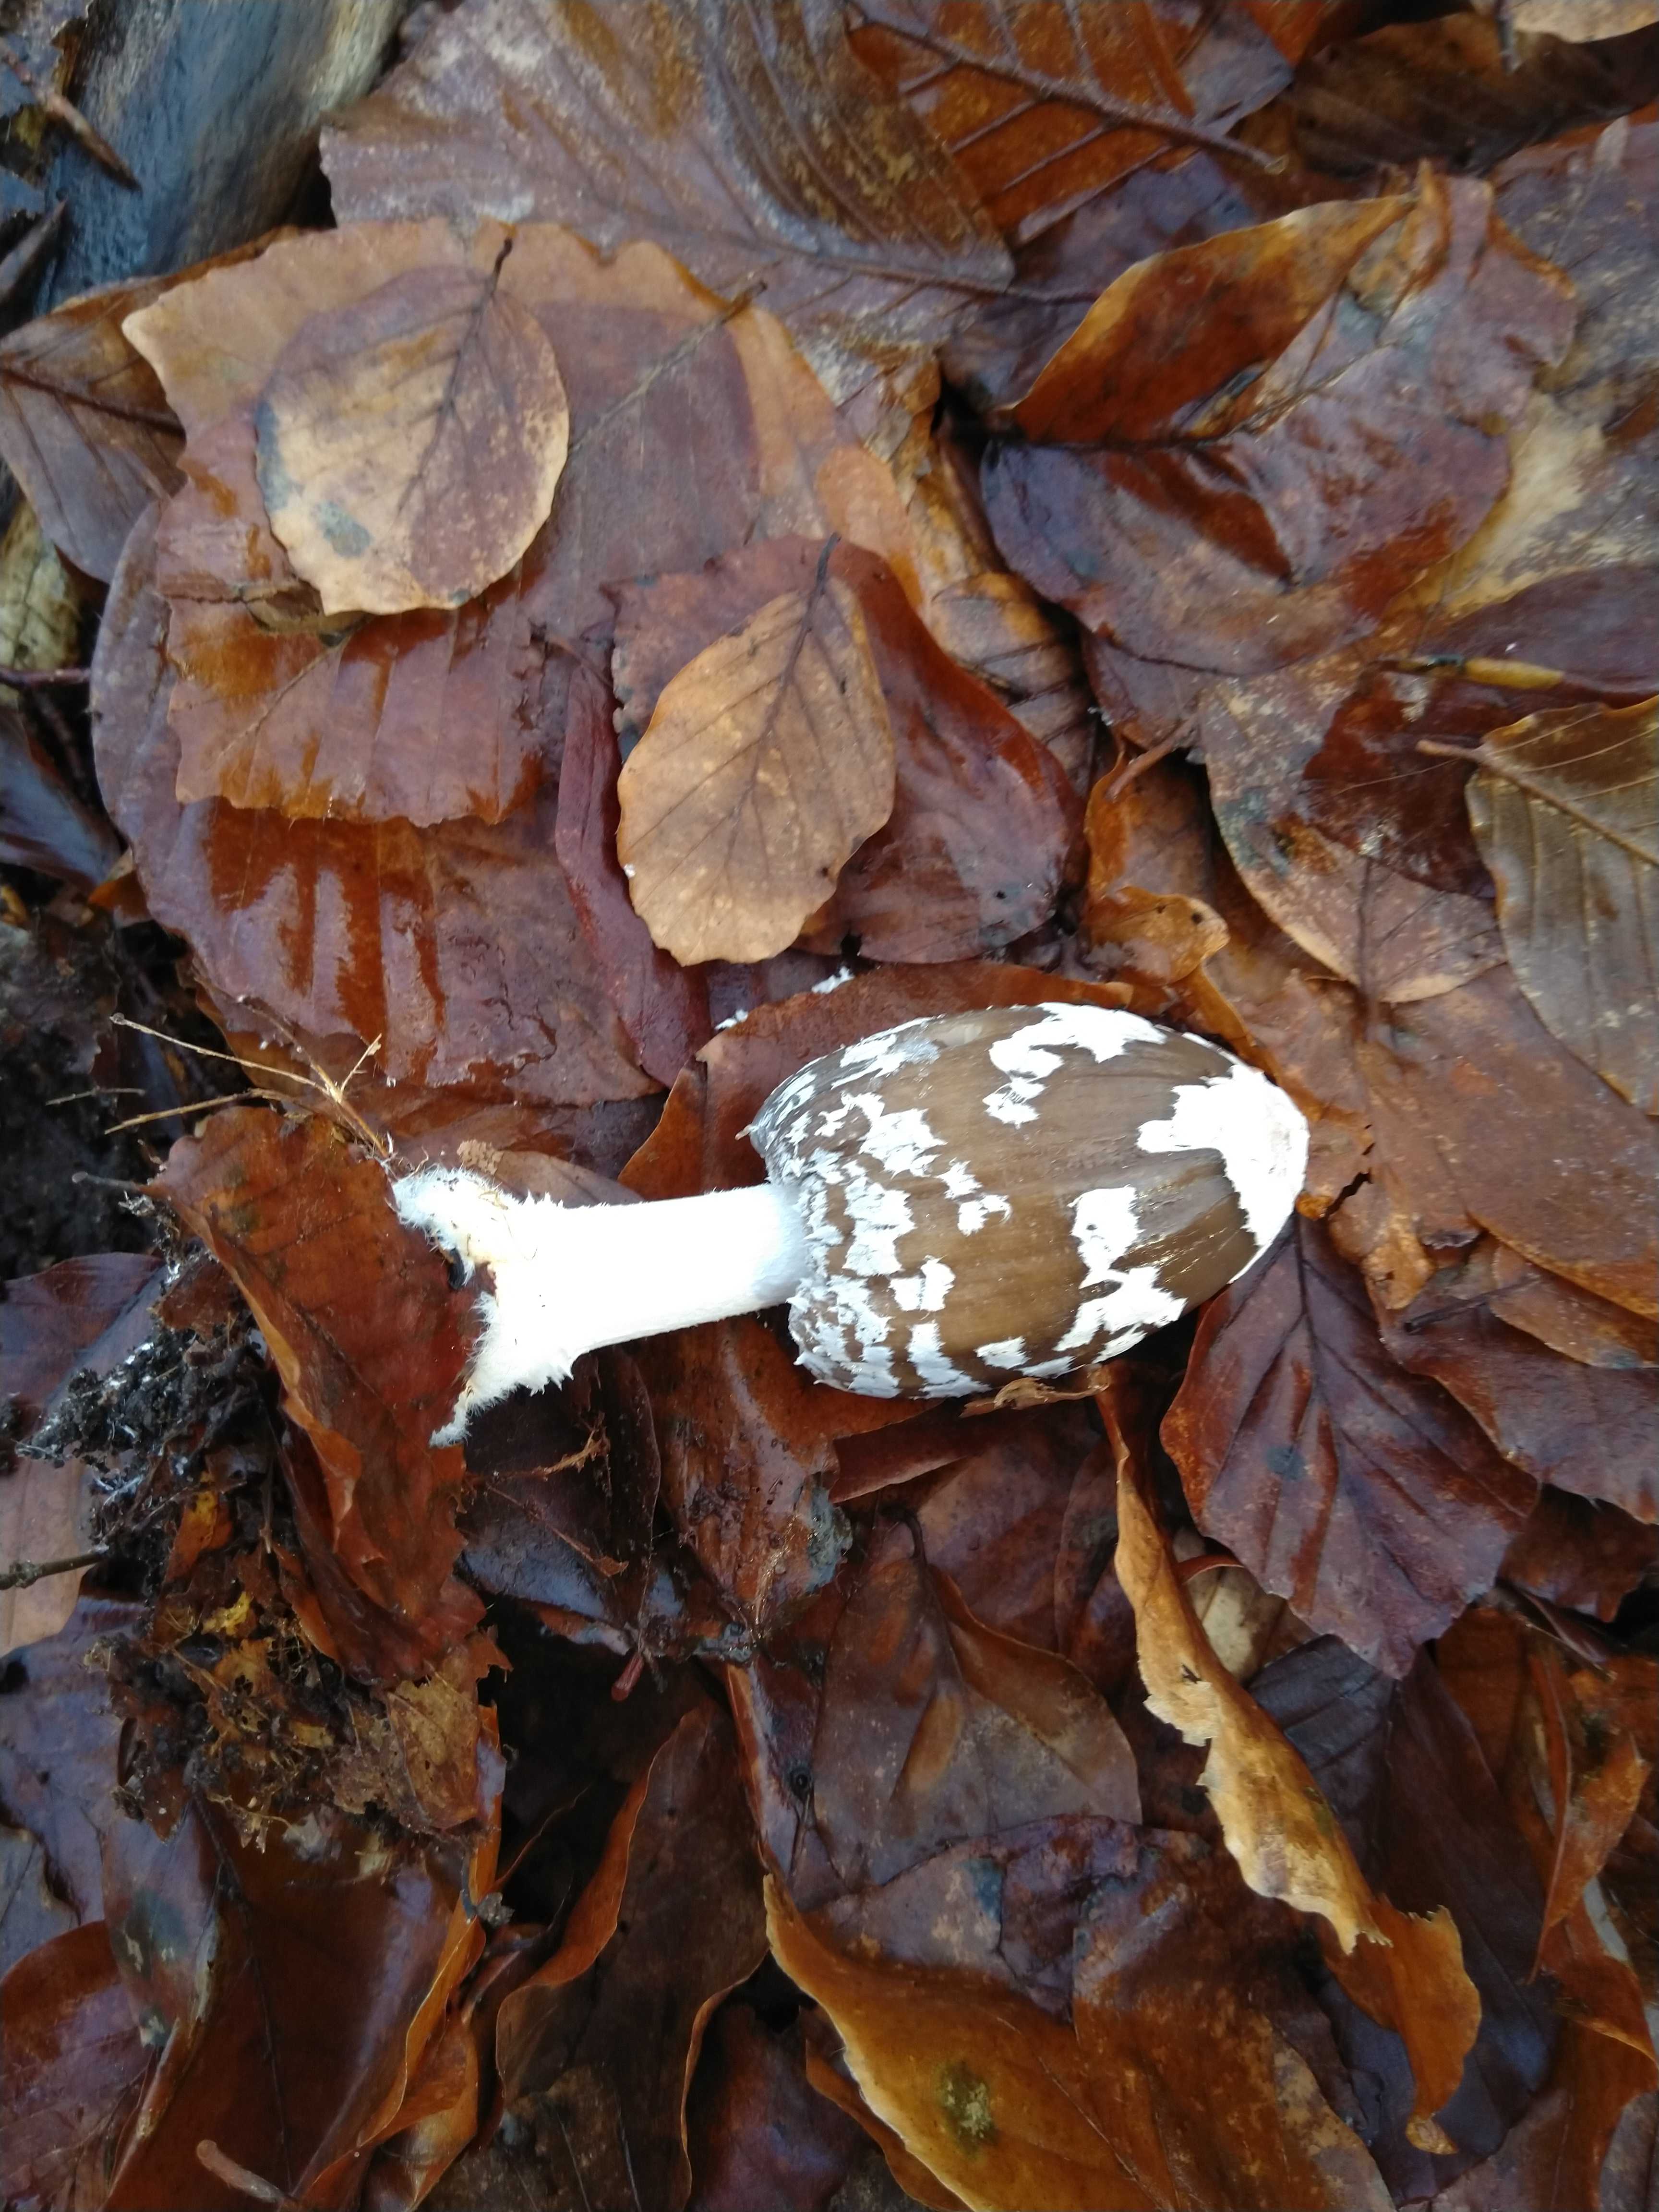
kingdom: Fungi
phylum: Basidiomycota
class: Agaricomycetes
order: Agaricales
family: Psathyrellaceae
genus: Coprinopsis
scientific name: Coprinopsis picacea
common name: skade-blækhat
